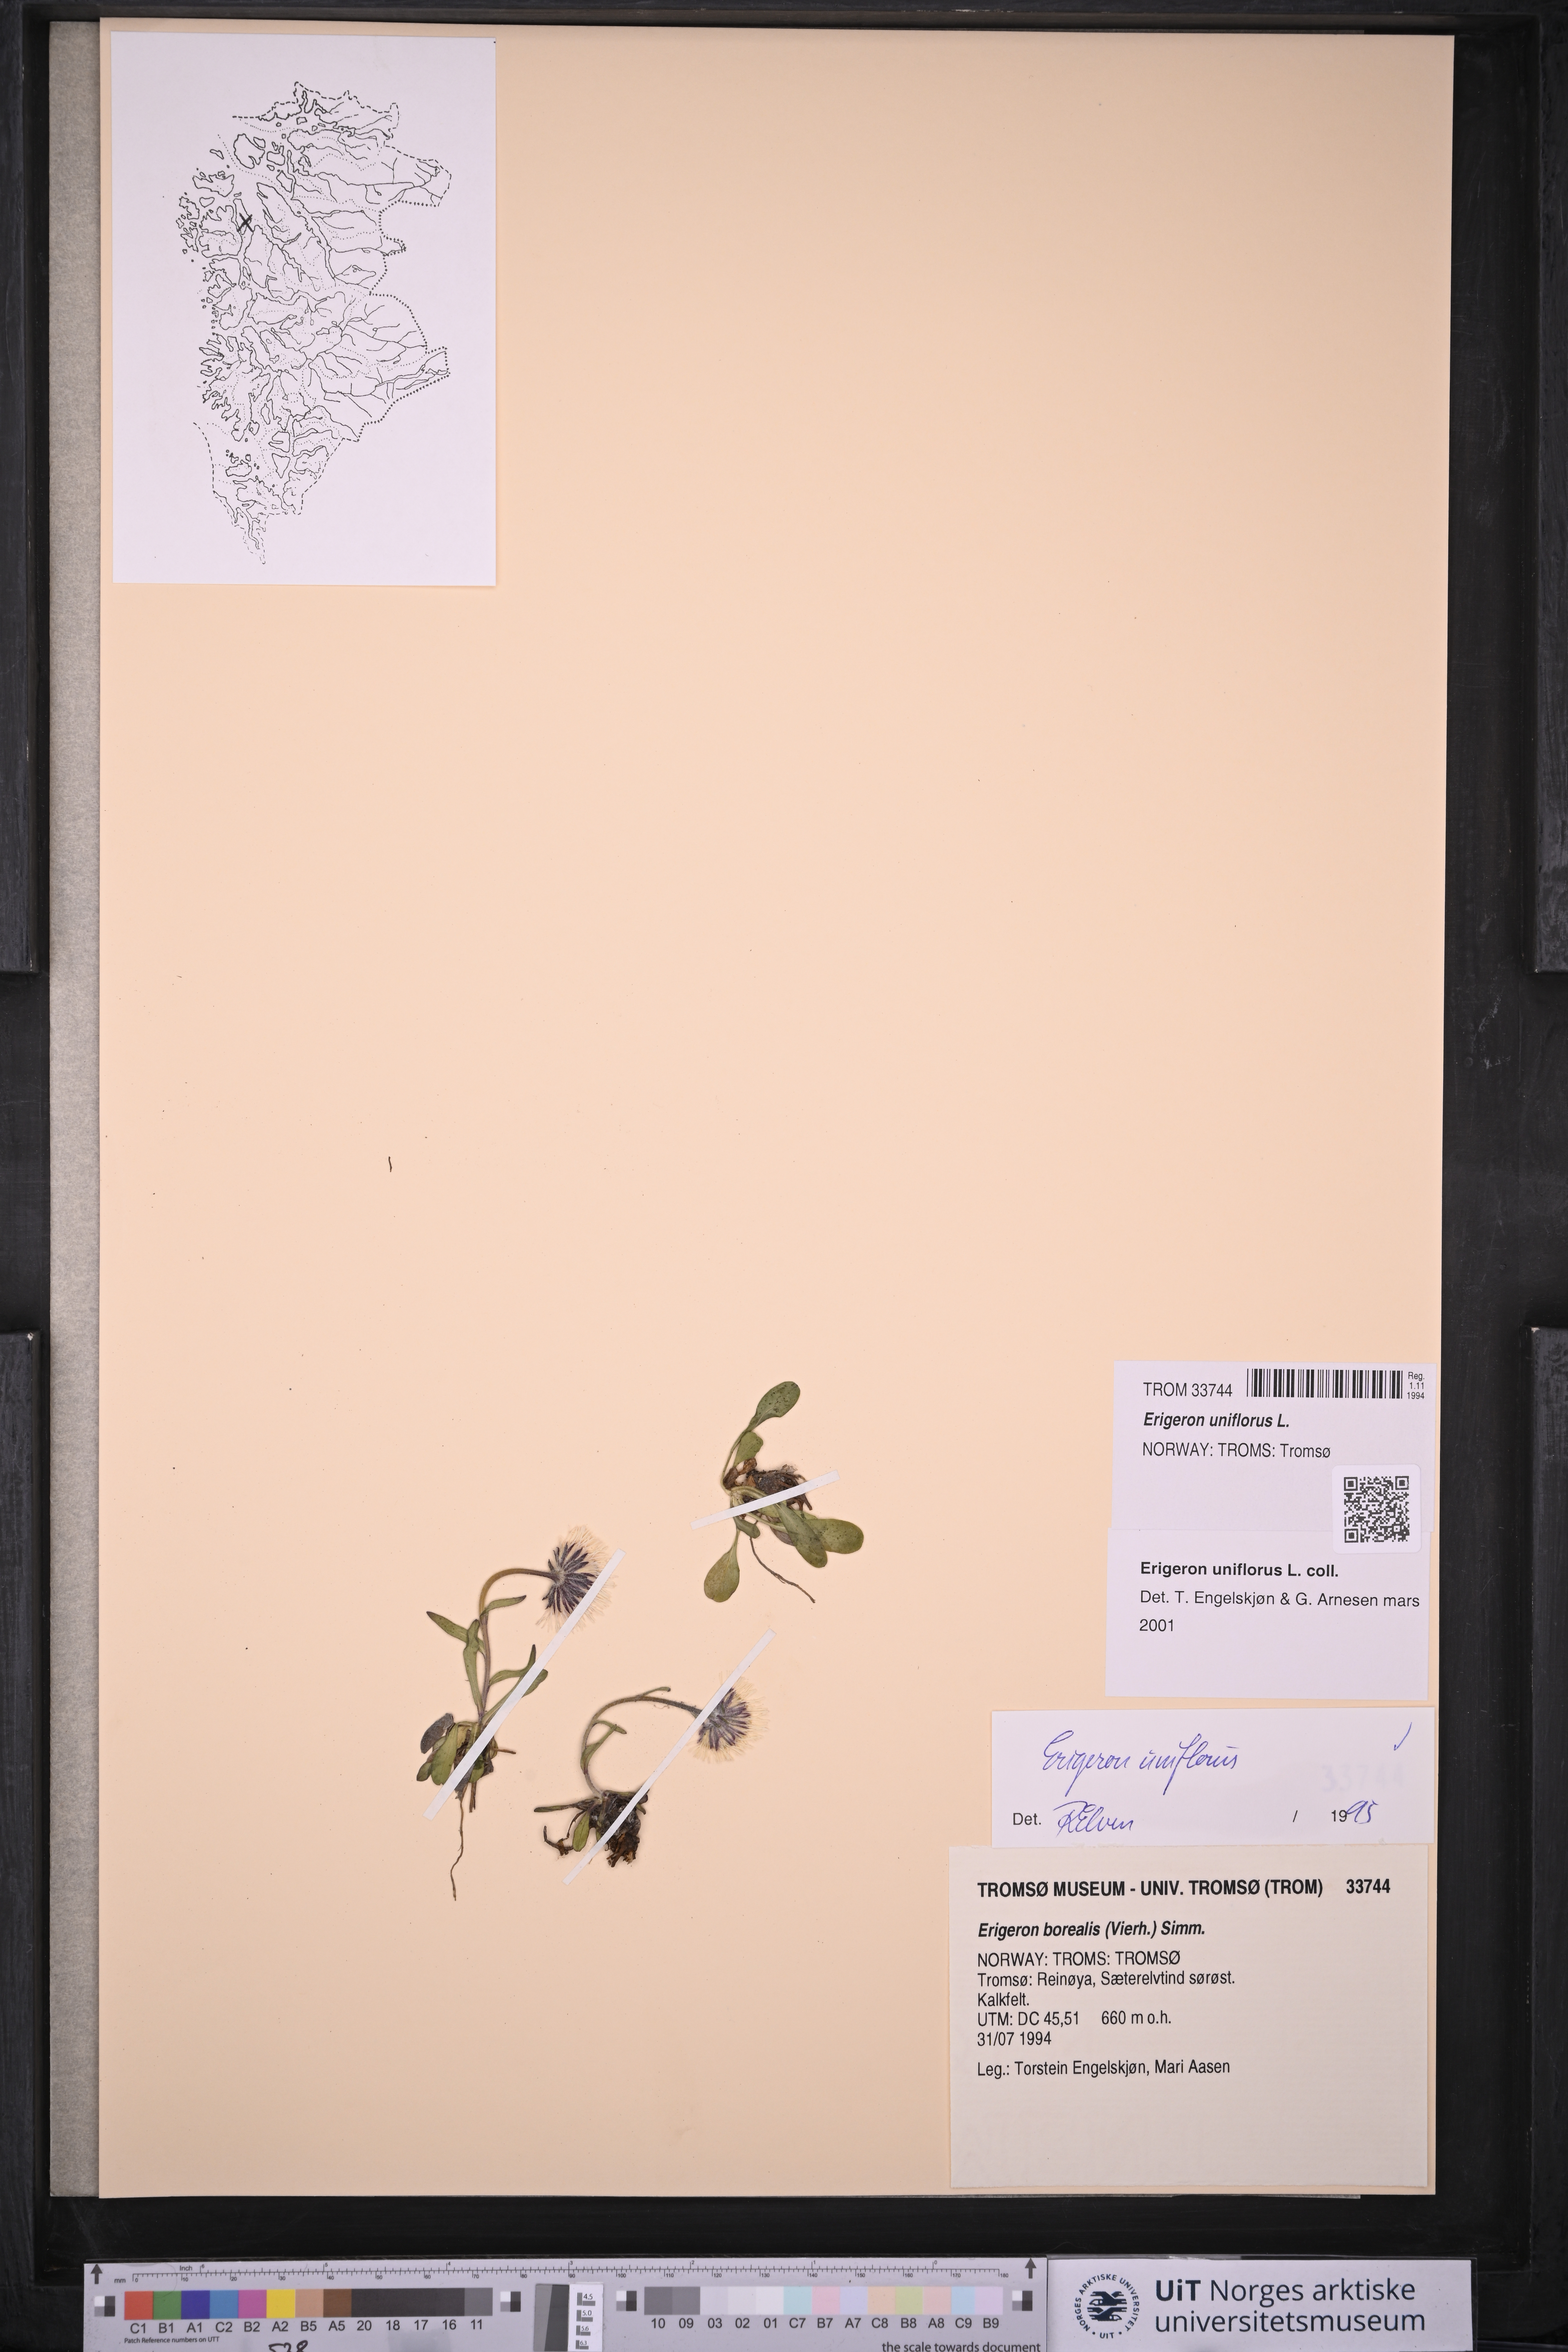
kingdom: Plantae
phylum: Tracheophyta
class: Magnoliopsida
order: Asterales
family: Asteraceae
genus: Erigeron
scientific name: Erigeron uniflorus
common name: Northern daisy
